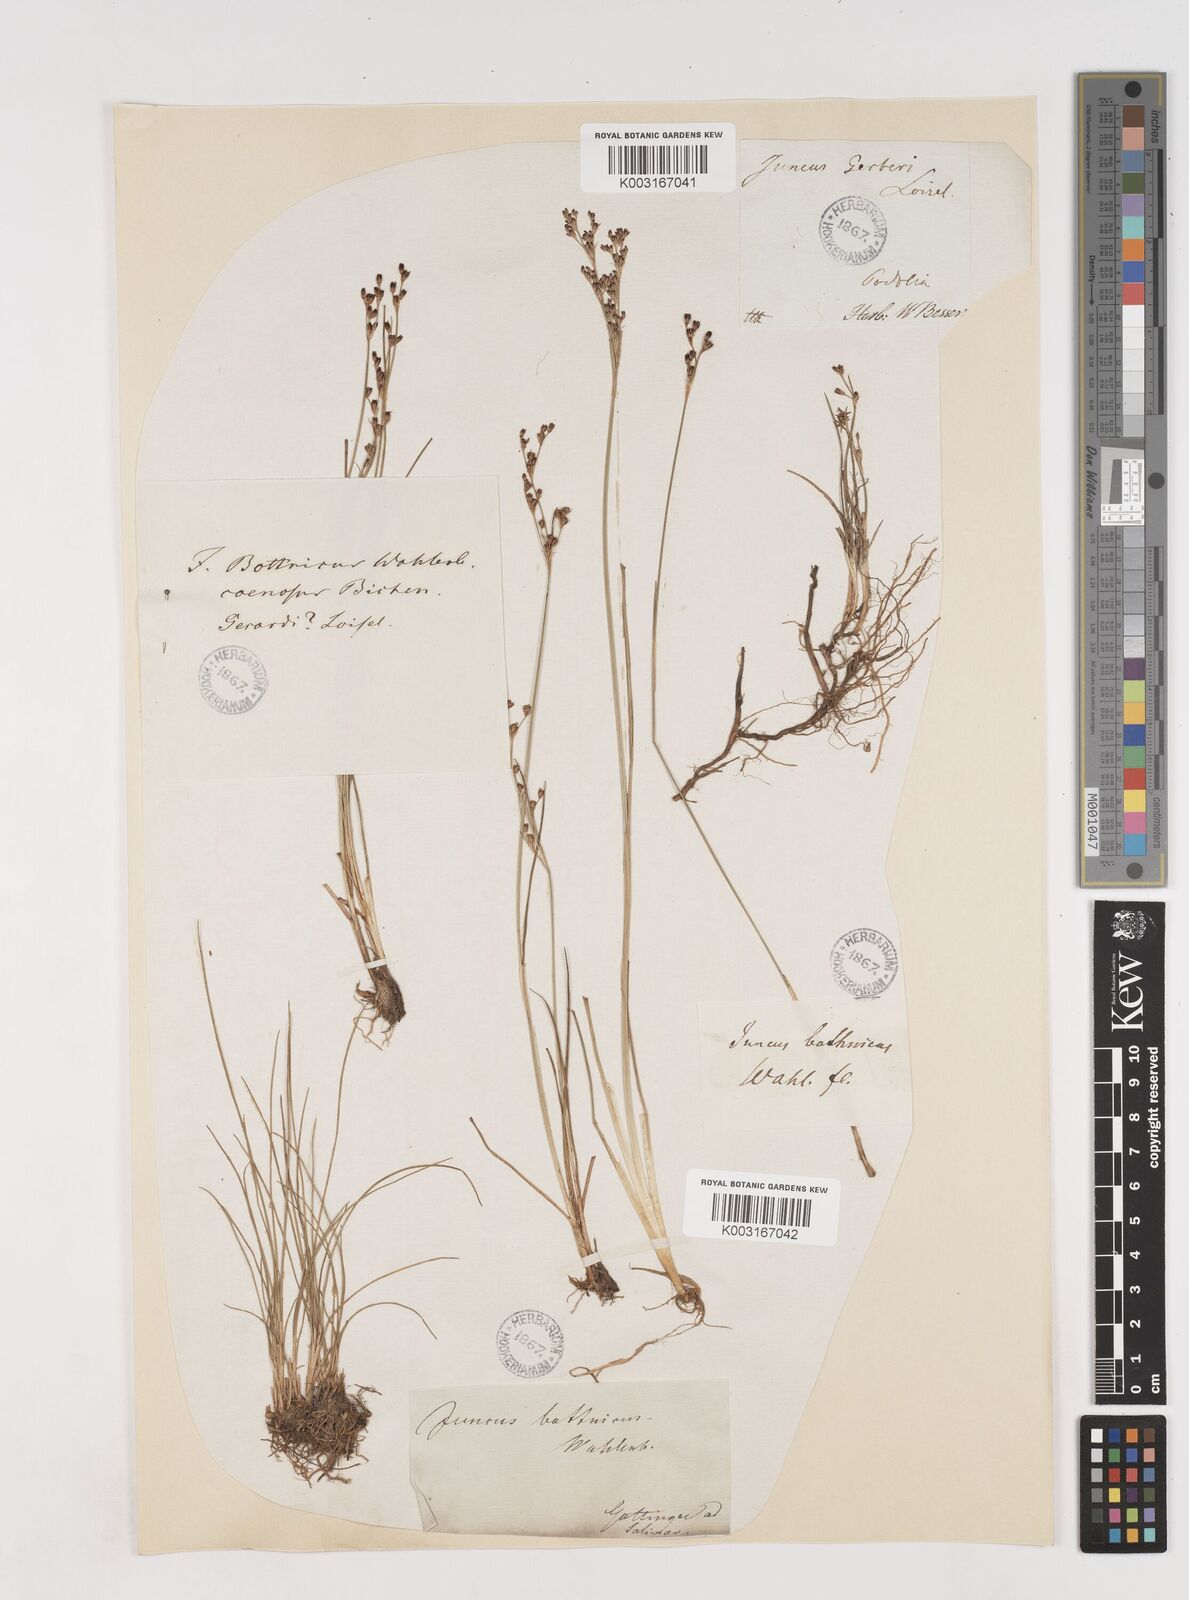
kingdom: Plantae
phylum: Tracheophyta
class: Liliopsida
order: Poales
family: Juncaceae
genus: Juncus
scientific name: Juncus gerardi
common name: Saltmarsh rush
